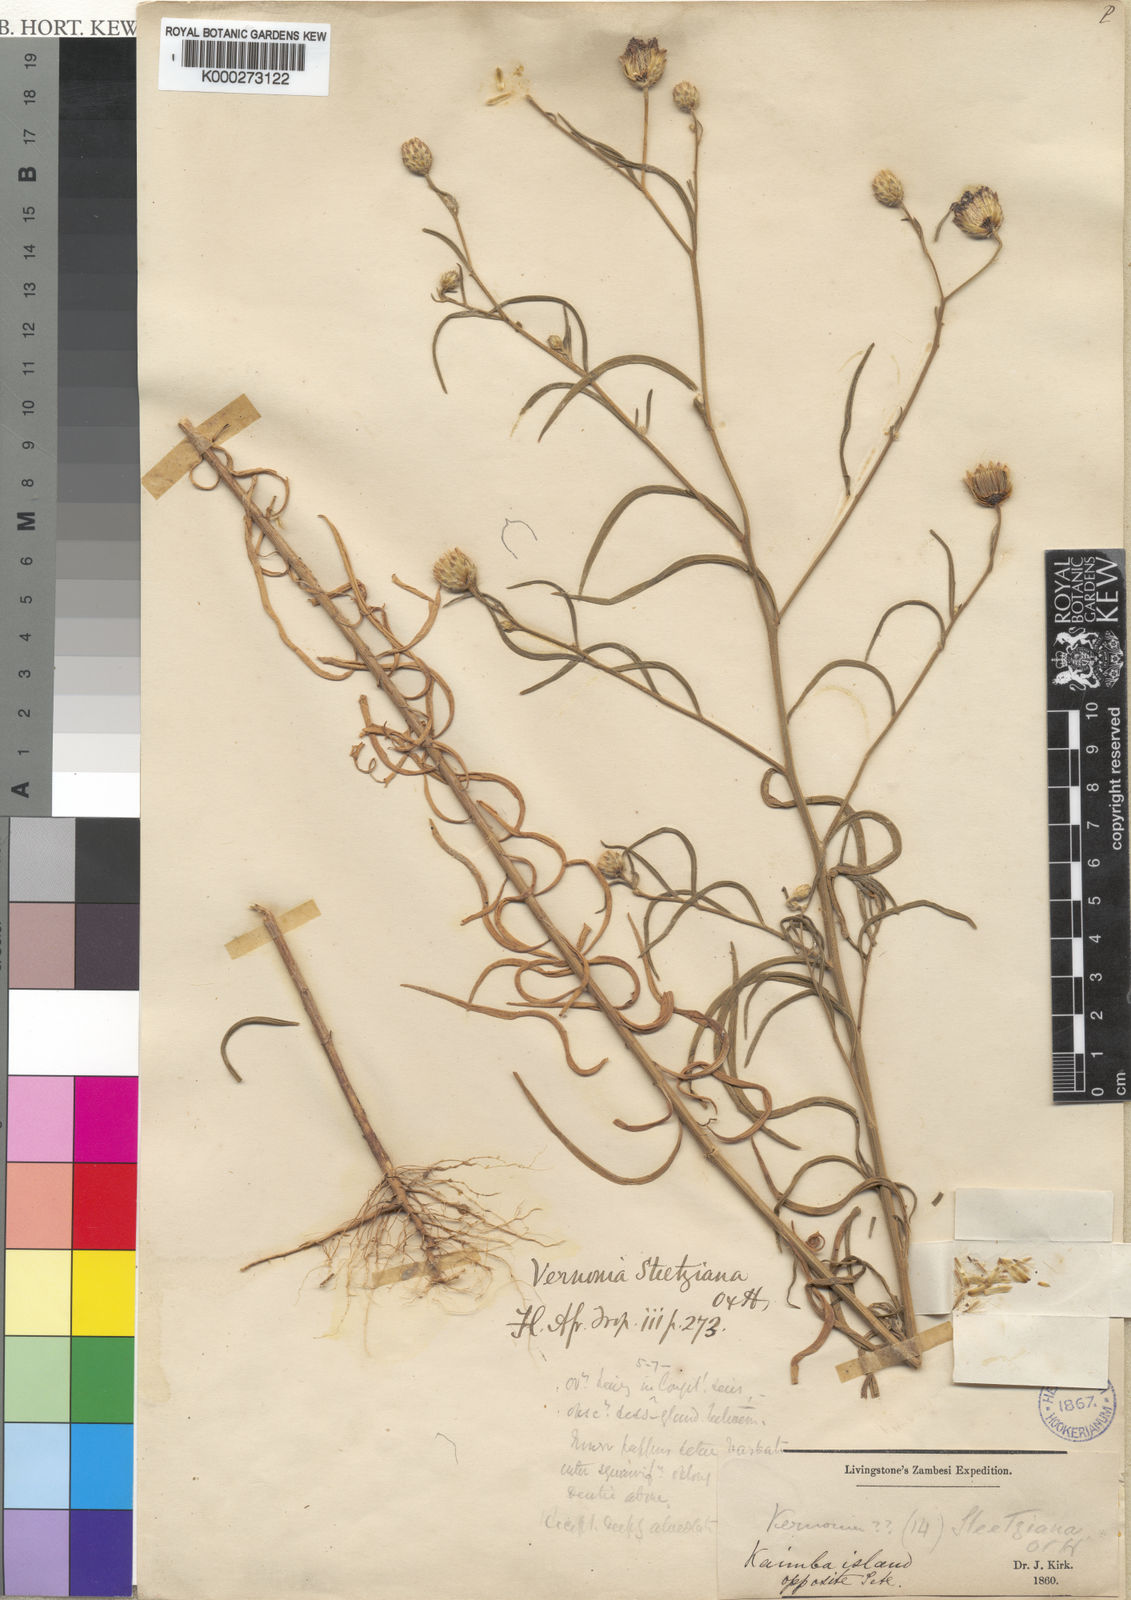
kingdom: Plantae
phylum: Tracheophyta
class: Magnoliopsida
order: Asterales
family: Asteraceae
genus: Crystallopollen
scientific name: Crystallopollen angustifolium
